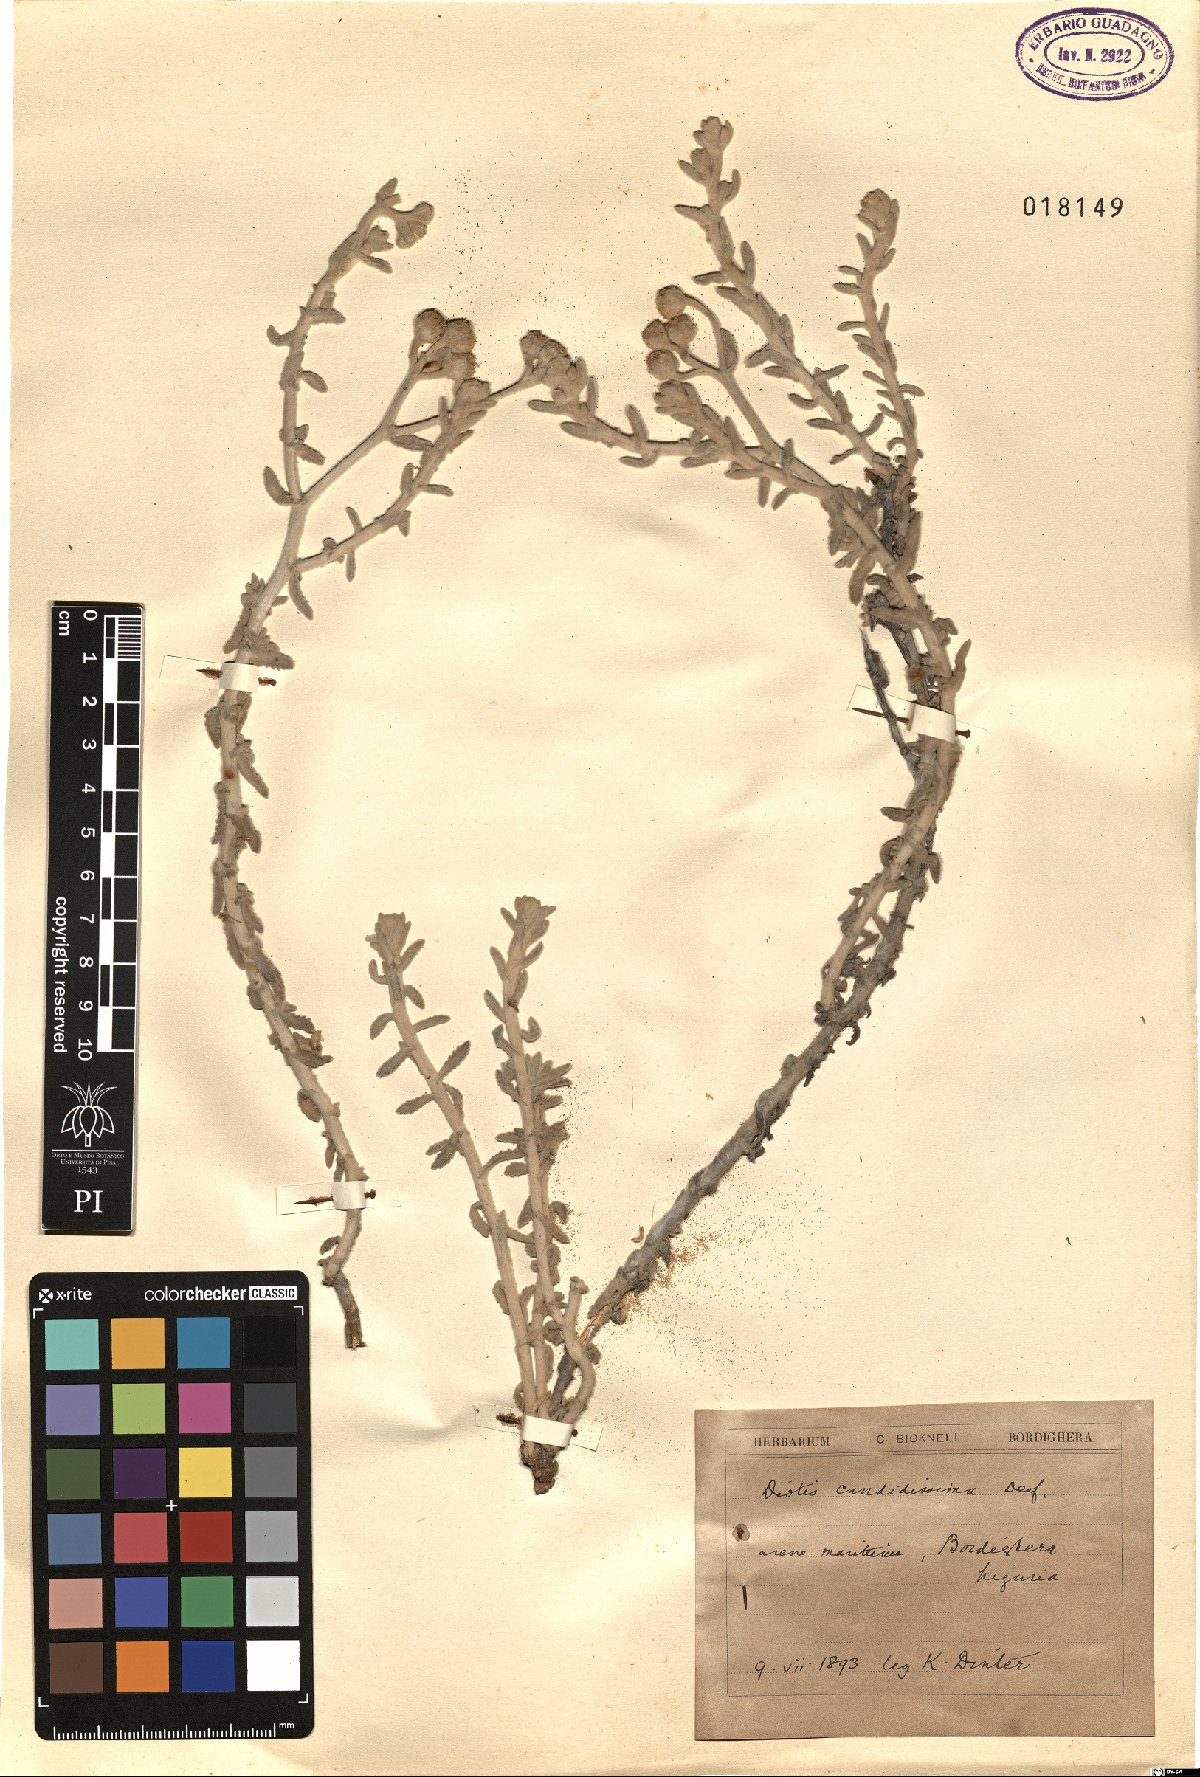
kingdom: Plantae
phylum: Tracheophyta
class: Magnoliopsida
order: Asterales
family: Asteraceae
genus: Achillea
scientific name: Achillea maritima
